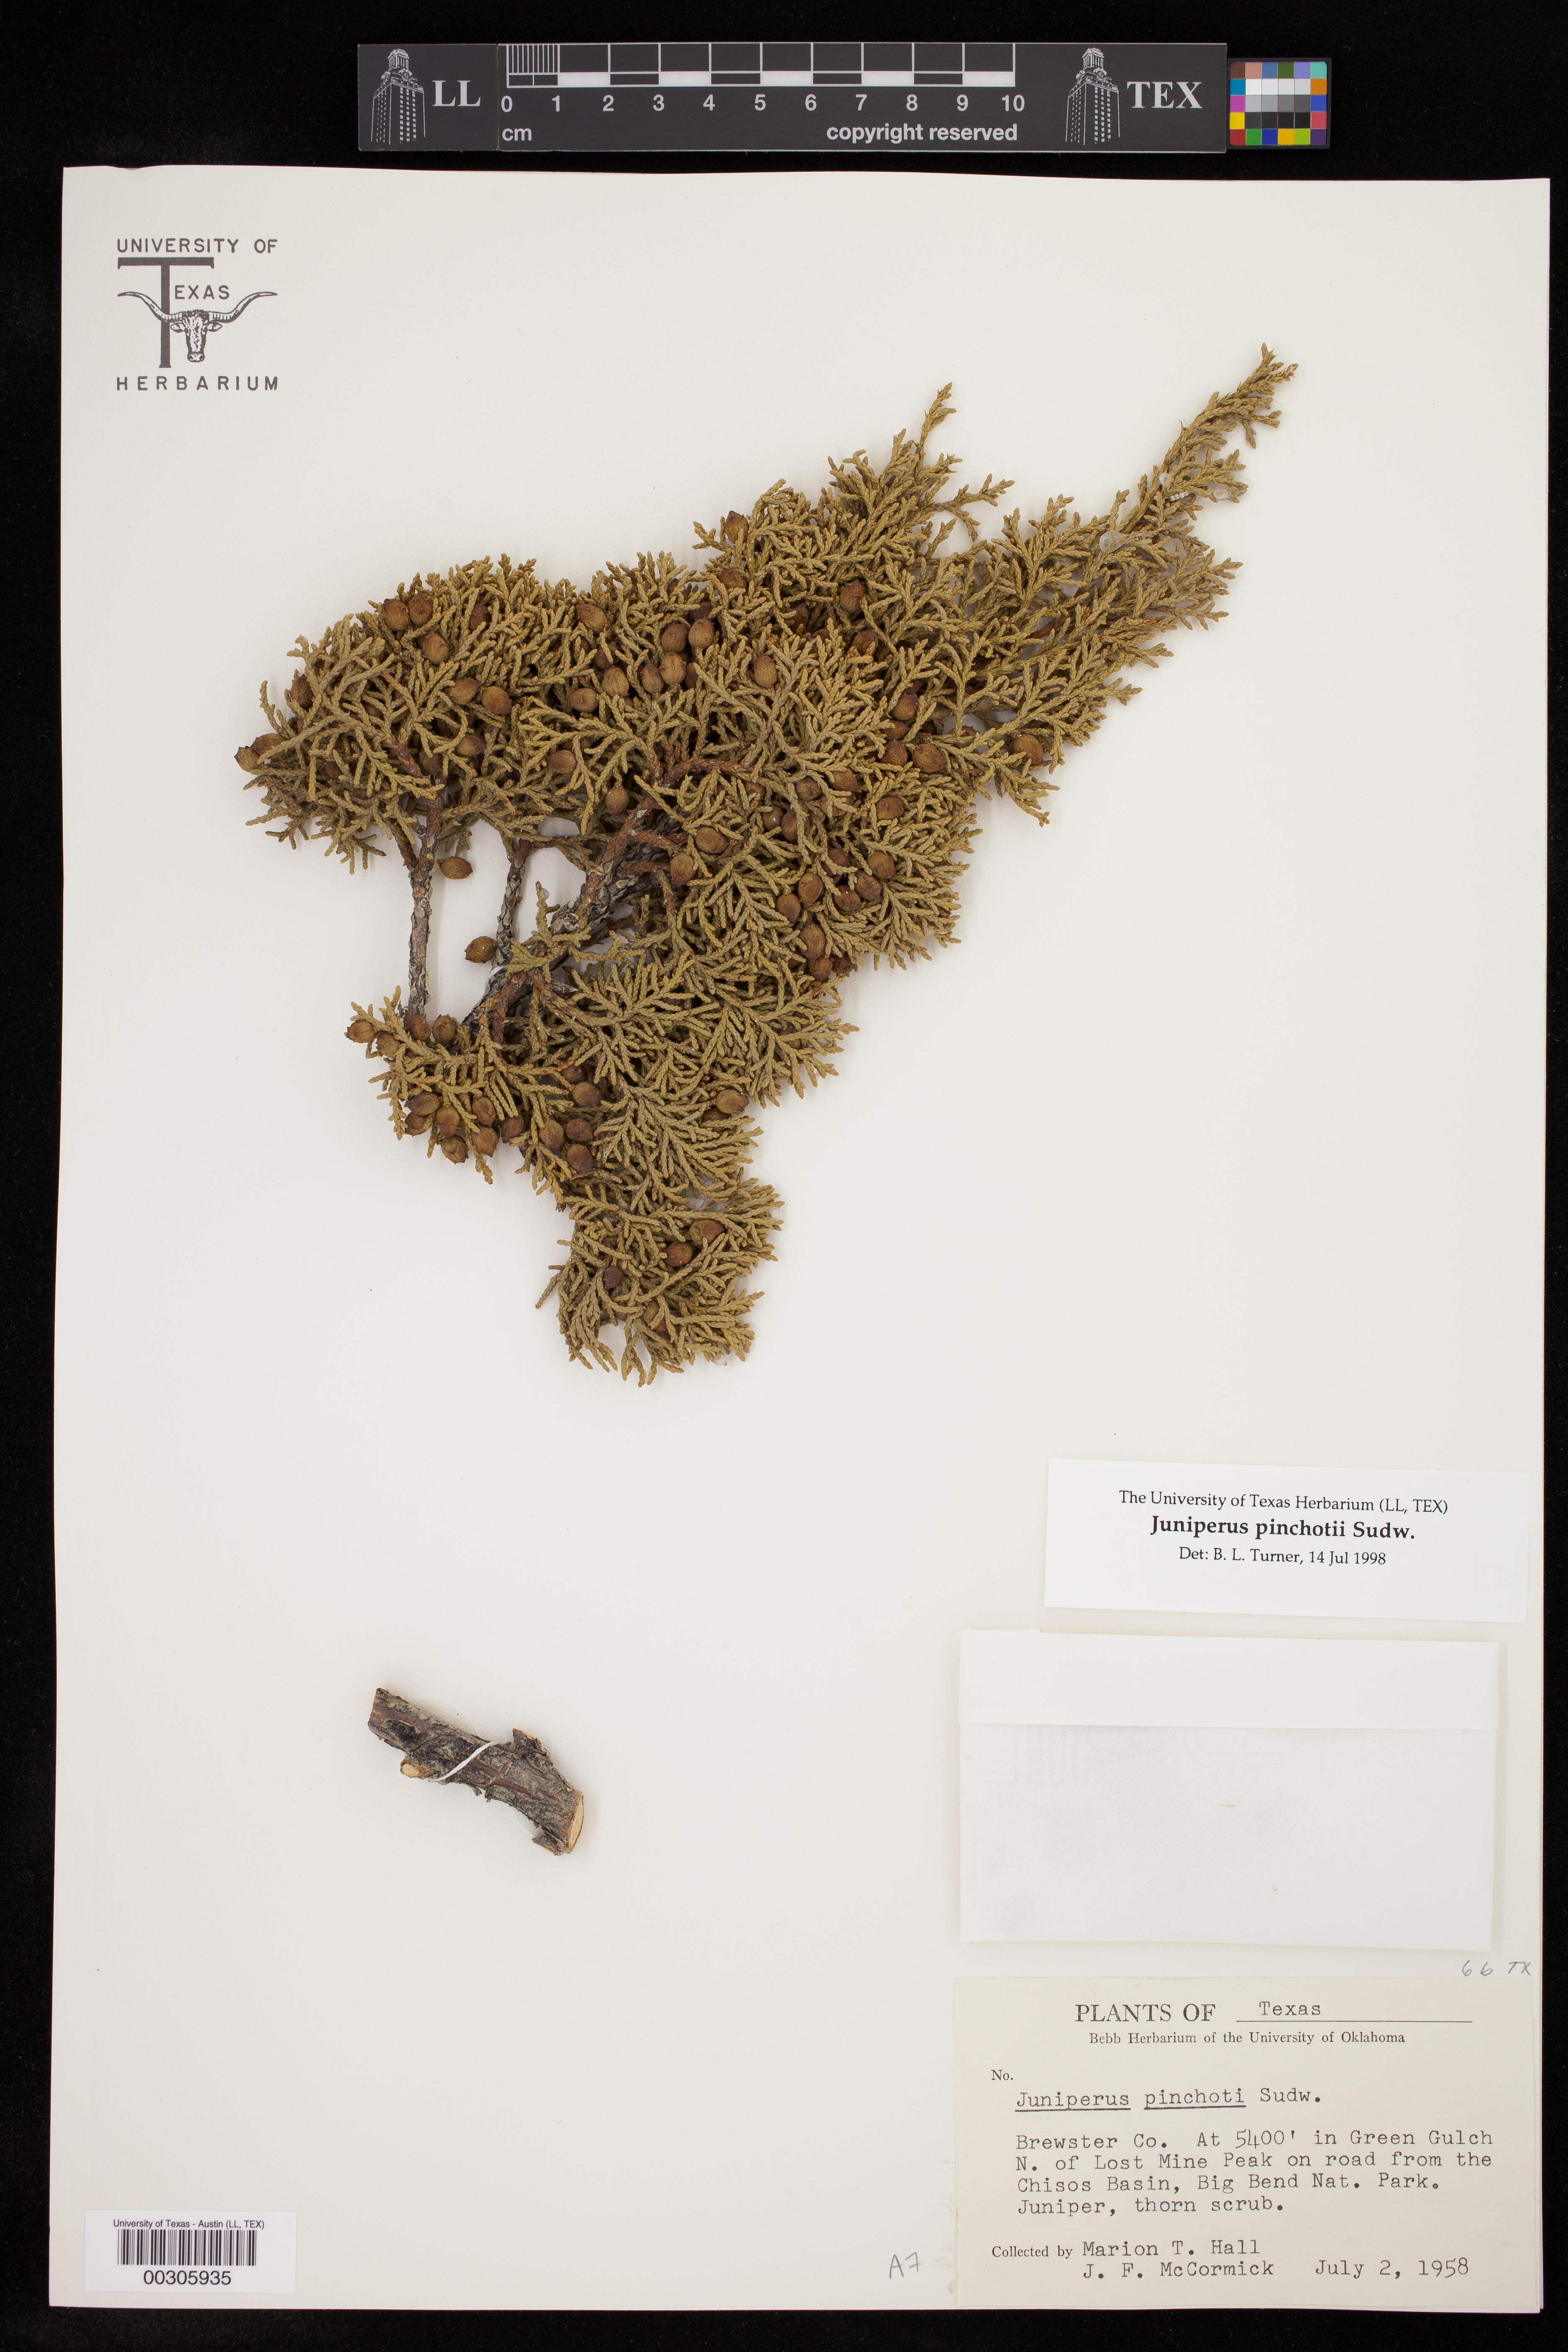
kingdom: Plantae
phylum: Tracheophyta
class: Pinopsida
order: Pinales
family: Cupressaceae
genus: Juniperus
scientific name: Juniperus pinchotii
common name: Pinchot juniper
